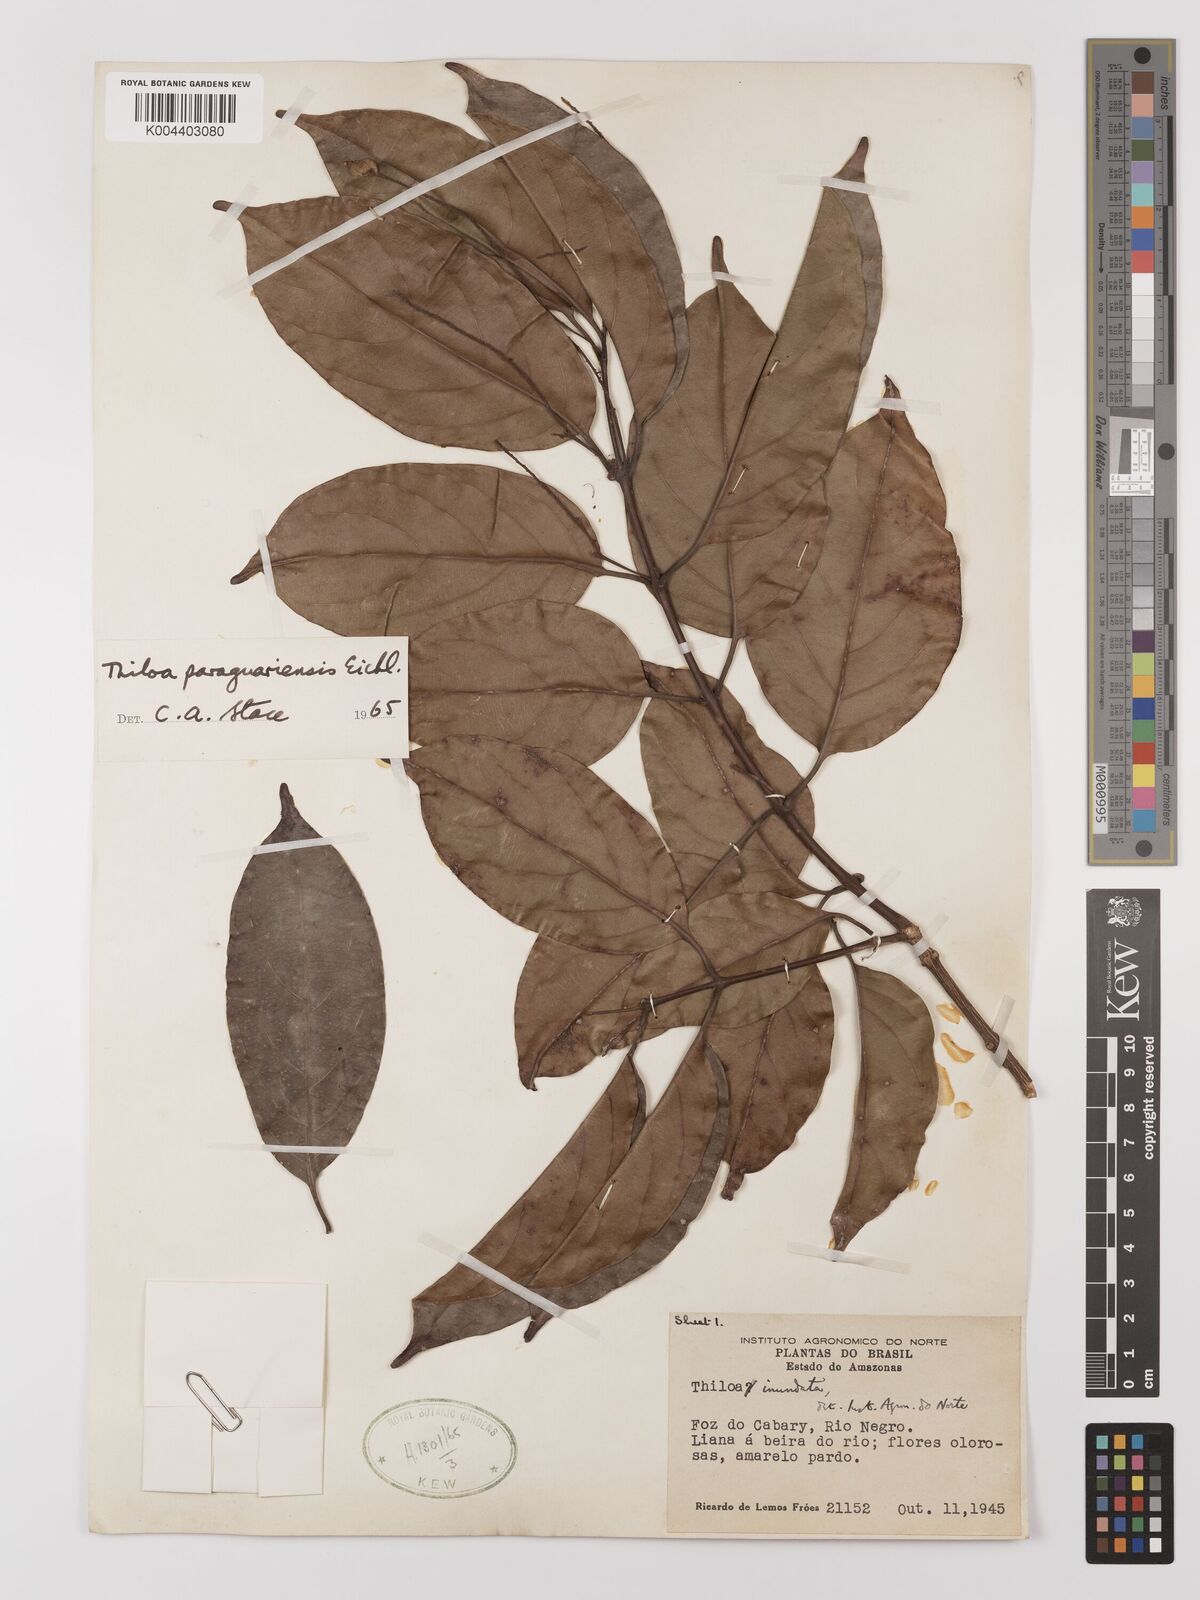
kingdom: Plantae
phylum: Tracheophyta
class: Magnoliopsida
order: Myrtales
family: Combretaceae
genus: Combretum
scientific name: Combretum paraguariense
